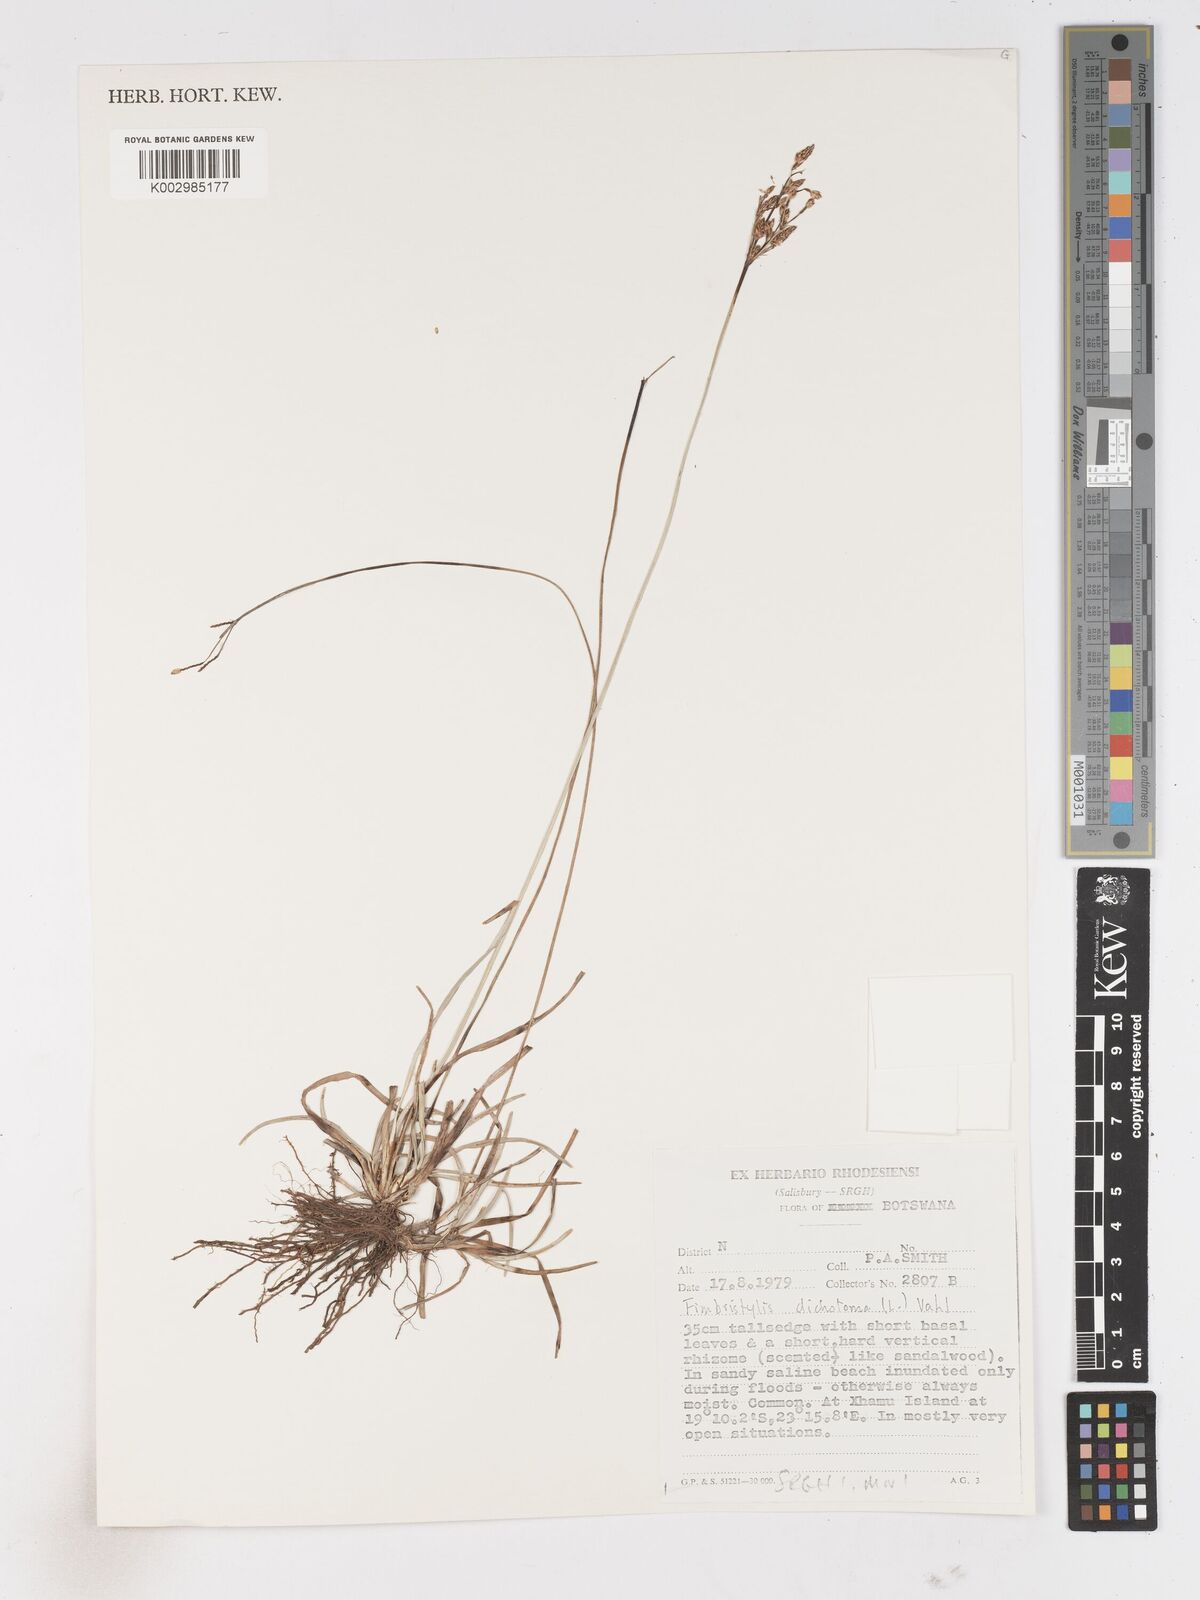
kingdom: Plantae
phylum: Tracheophyta
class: Liliopsida
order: Poales
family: Cyperaceae
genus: Fimbristylis
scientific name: Fimbristylis dichotoma
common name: Forked fimbry
